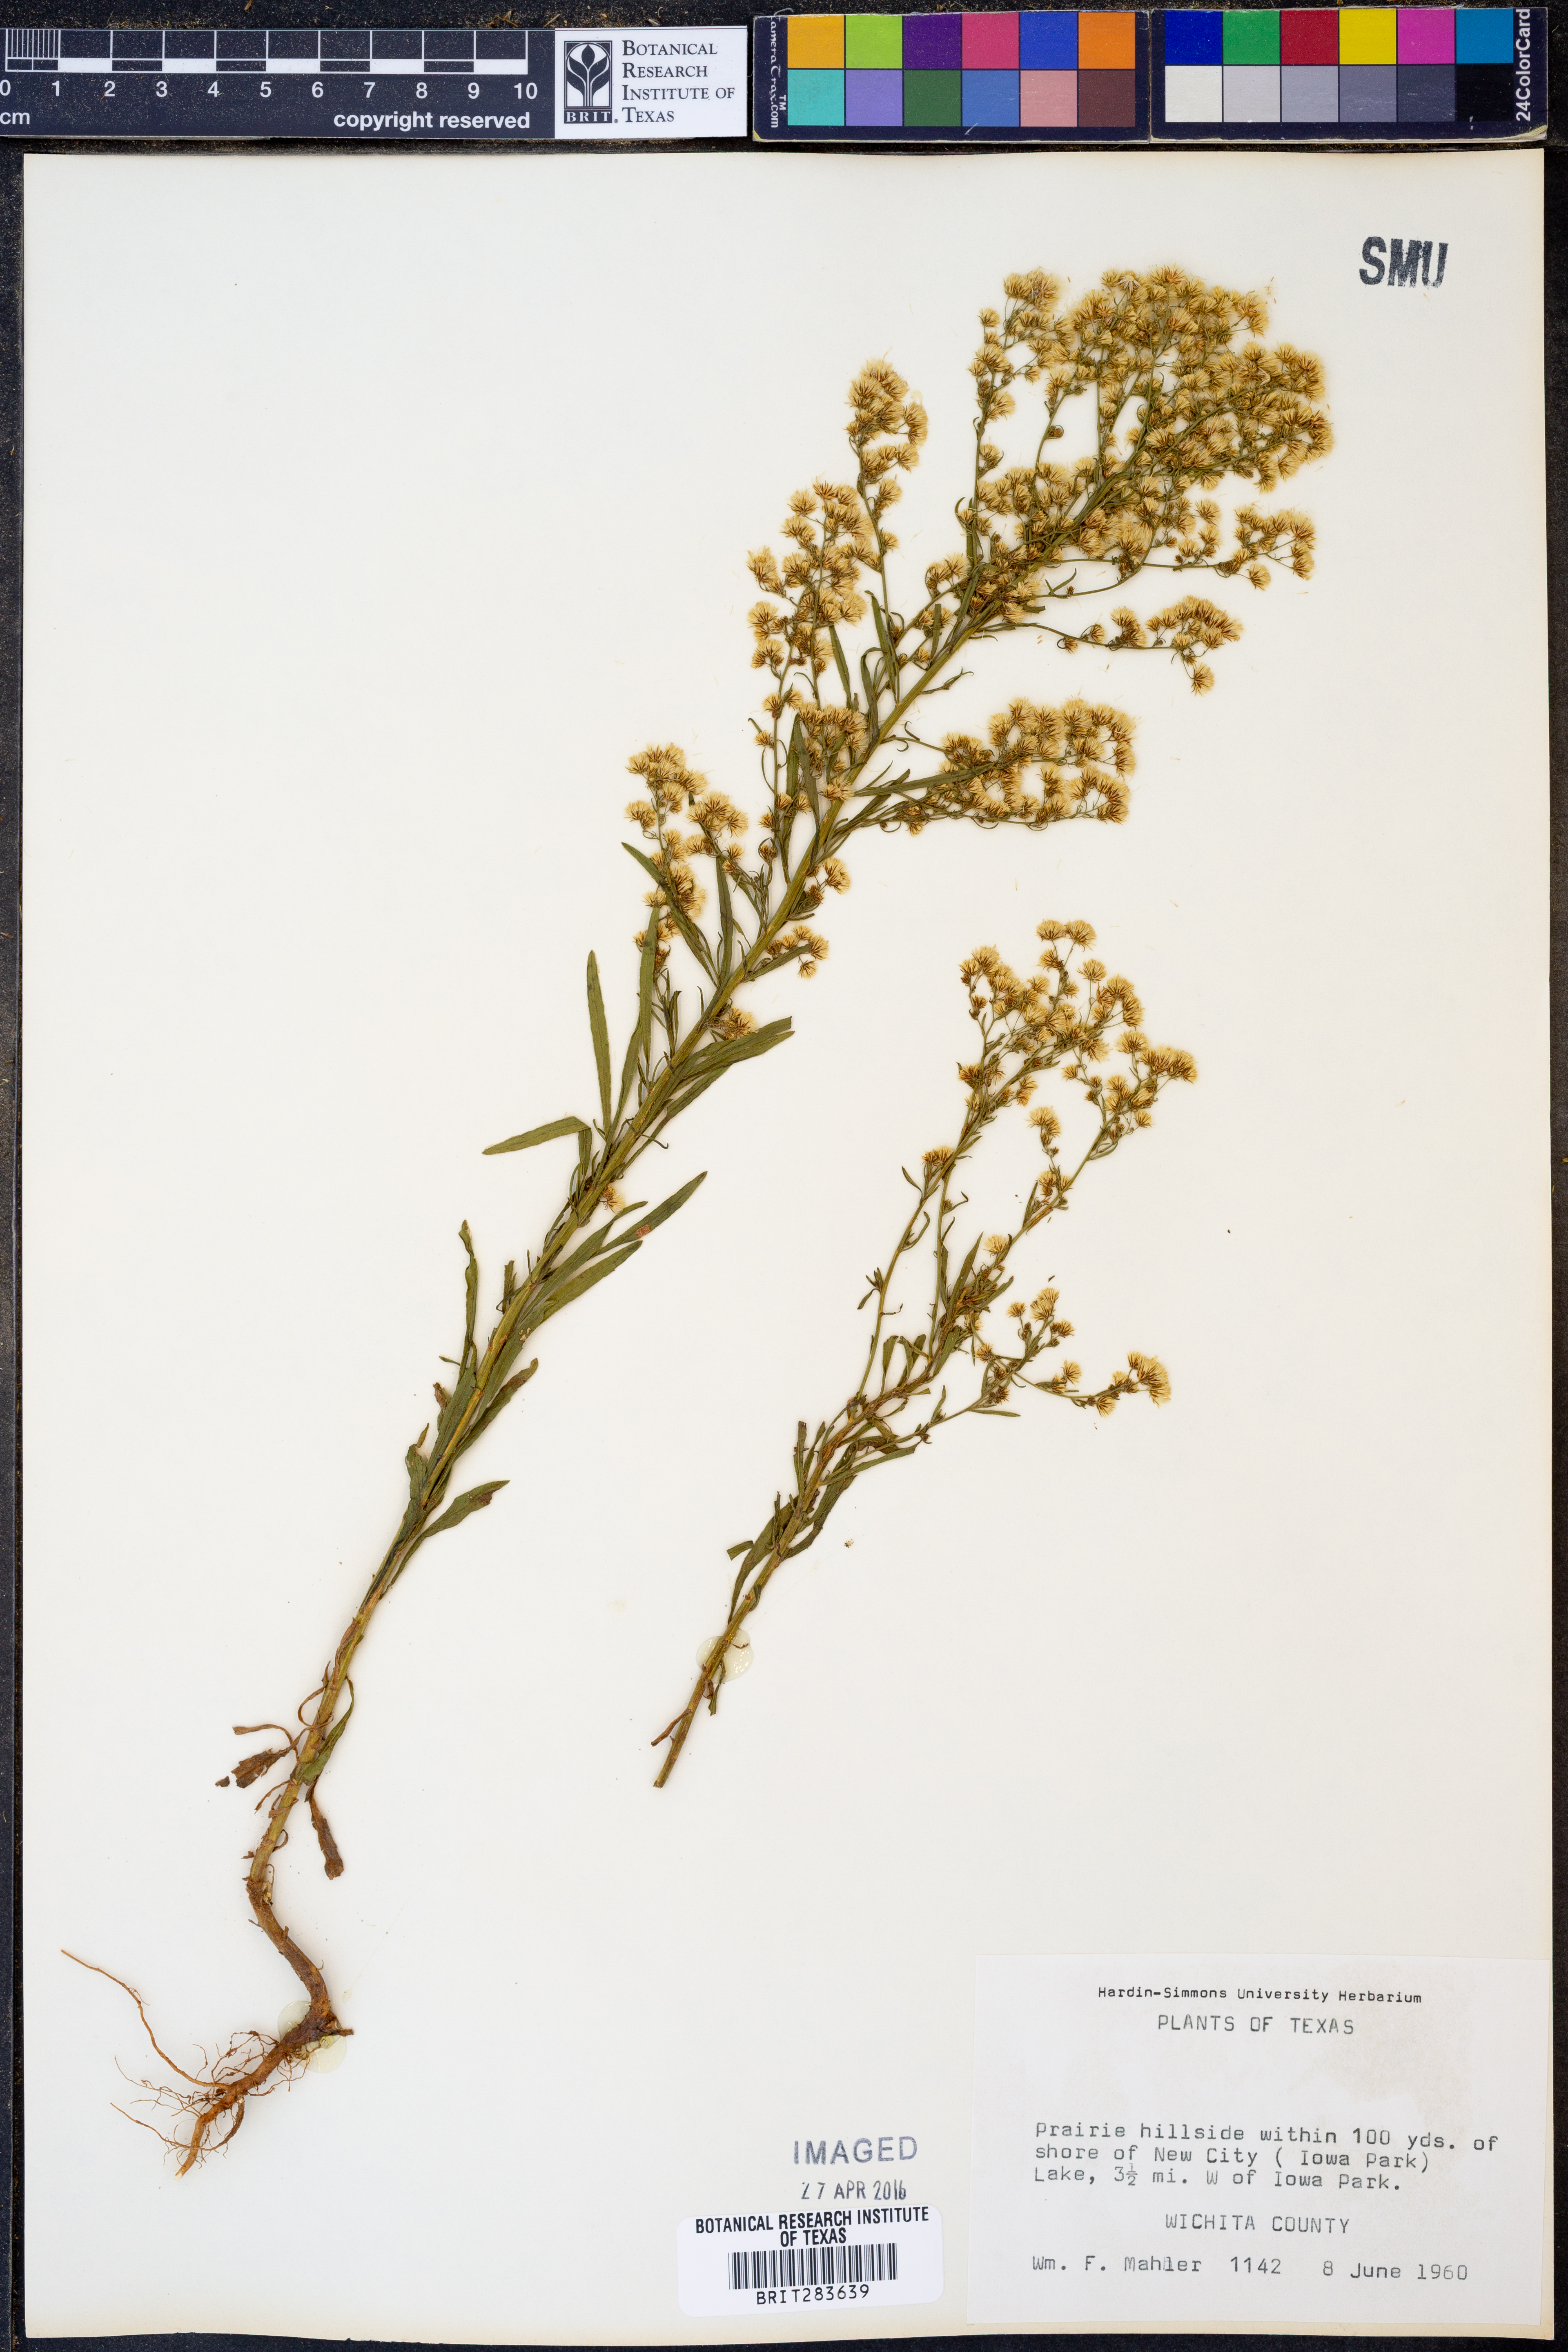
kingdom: Plantae
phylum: Tracheophyta
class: Magnoliopsida
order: Asterales
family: Asteraceae
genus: Erigeron
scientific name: Erigeron canadensis
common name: Canadian fleabane
